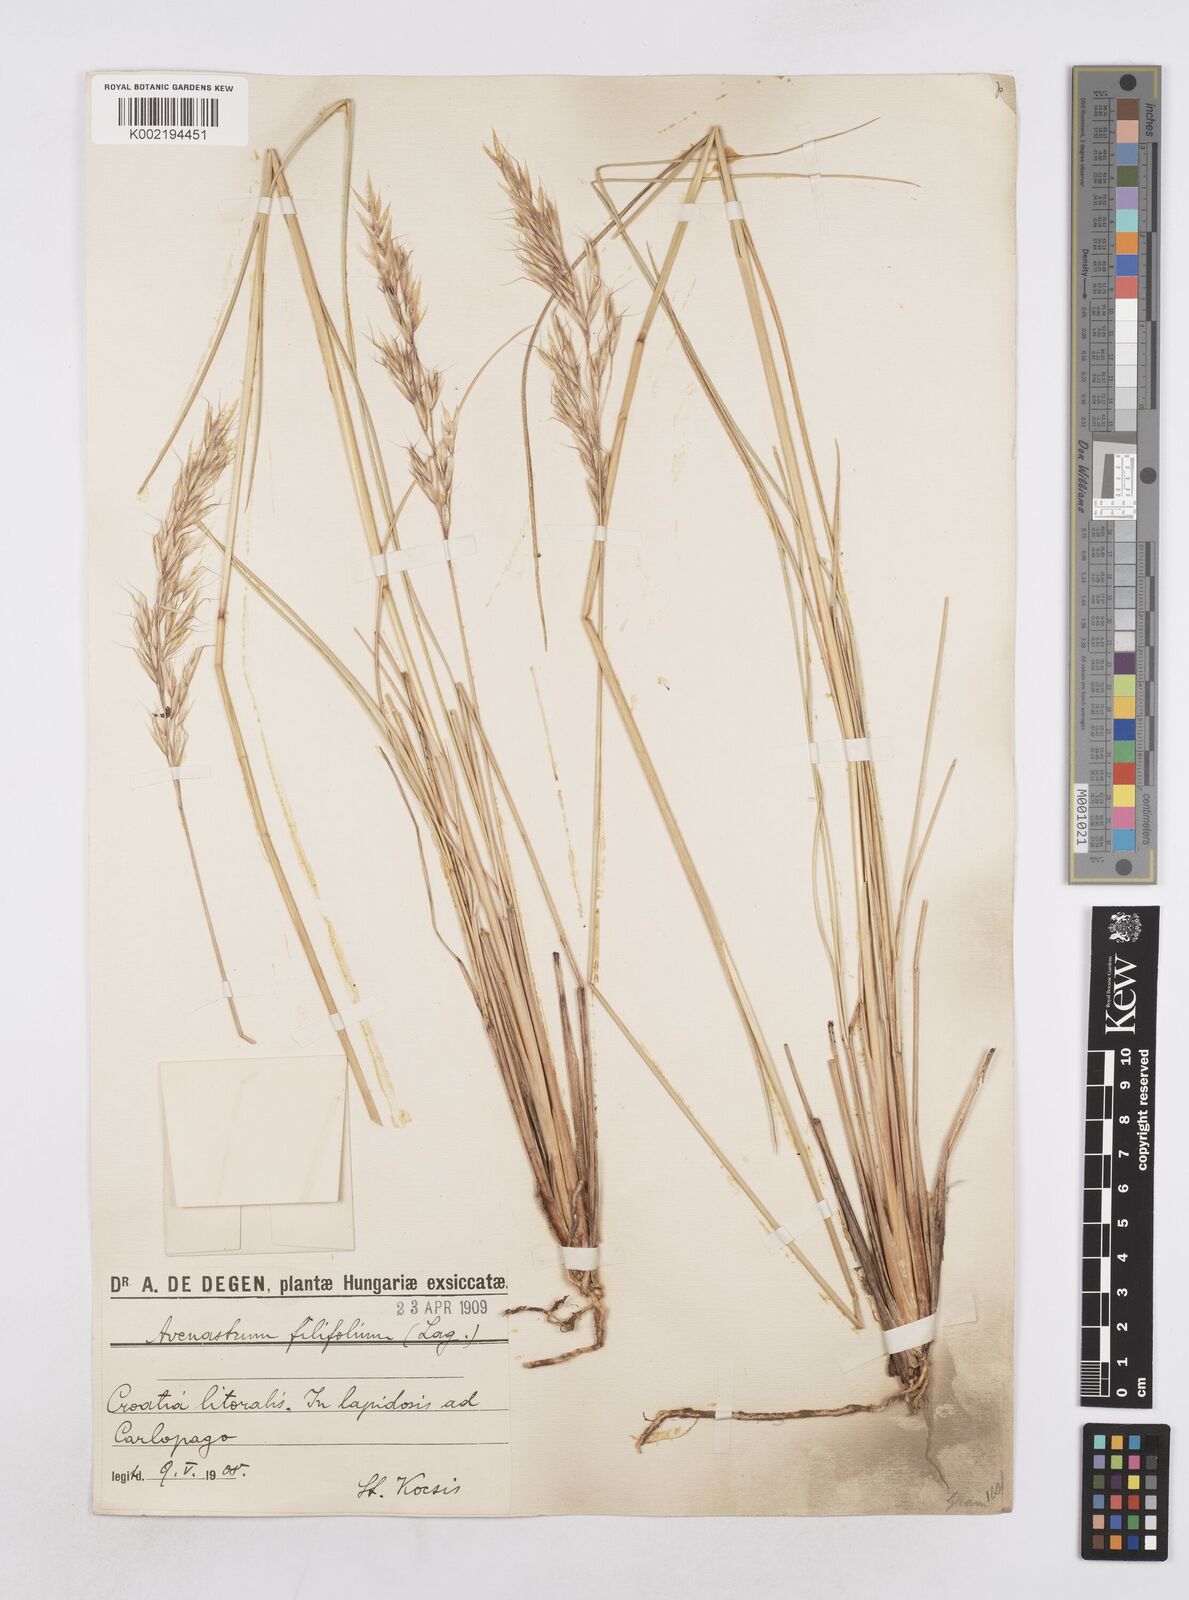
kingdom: Plantae
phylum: Tracheophyta
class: Liliopsida
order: Poales
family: Poaceae
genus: Helictotrichon
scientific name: Helictotrichon convolutum
